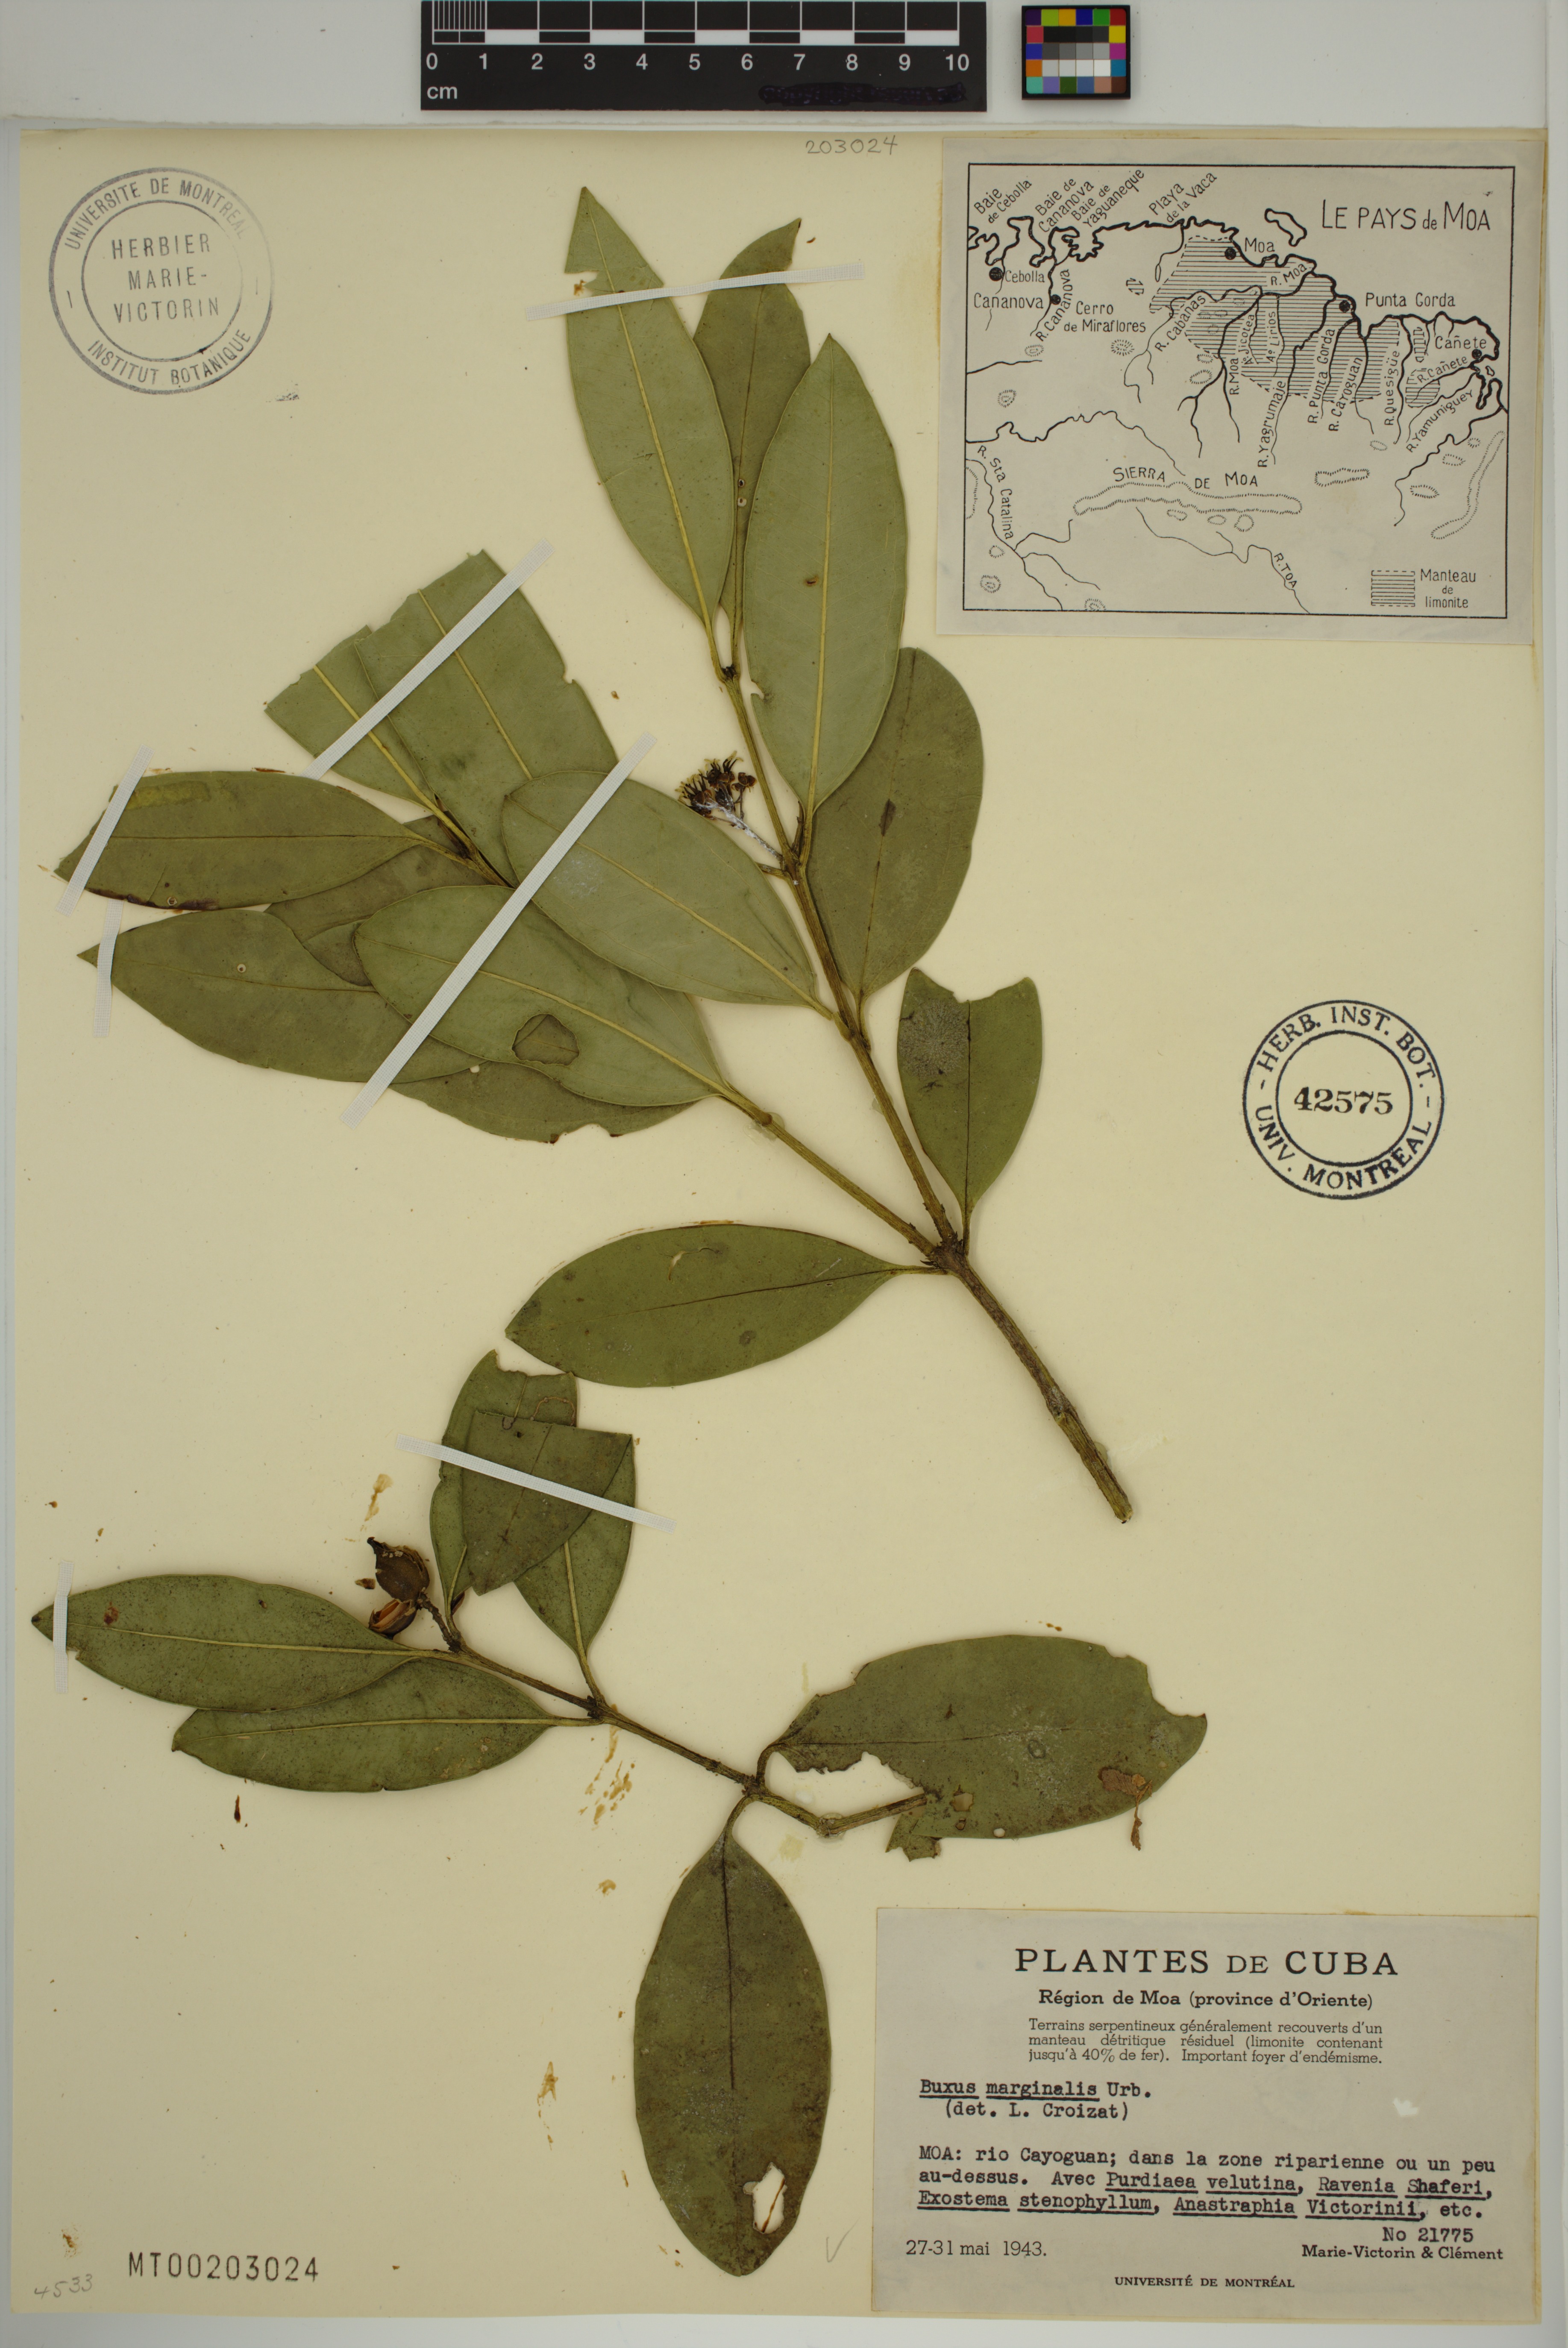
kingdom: Plantae
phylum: Tracheophyta
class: Magnoliopsida
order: Buxales
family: Buxaceae
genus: Buxus
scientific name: Buxus marginalis
